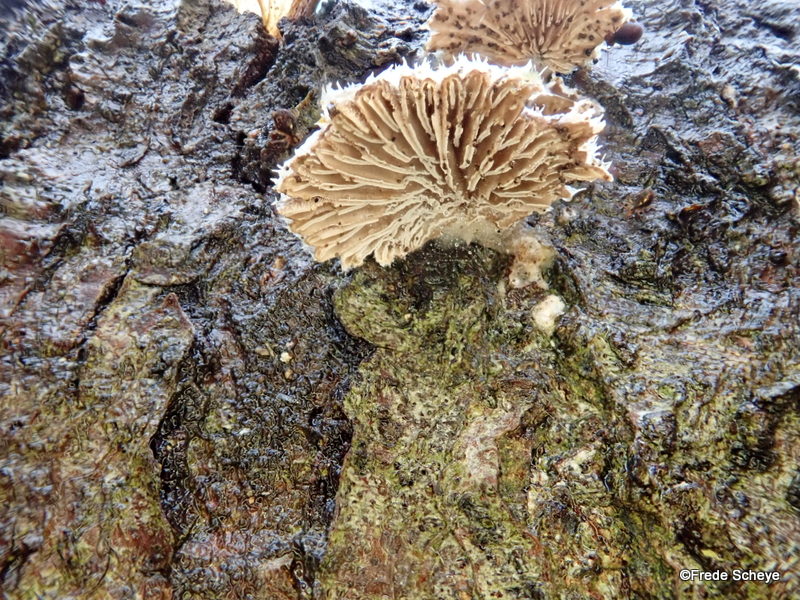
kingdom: Fungi
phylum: Basidiomycota
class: Agaricomycetes
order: Agaricales
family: Schizophyllaceae
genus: Schizophyllum
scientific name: Schizophyllum commune
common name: kløvblad
